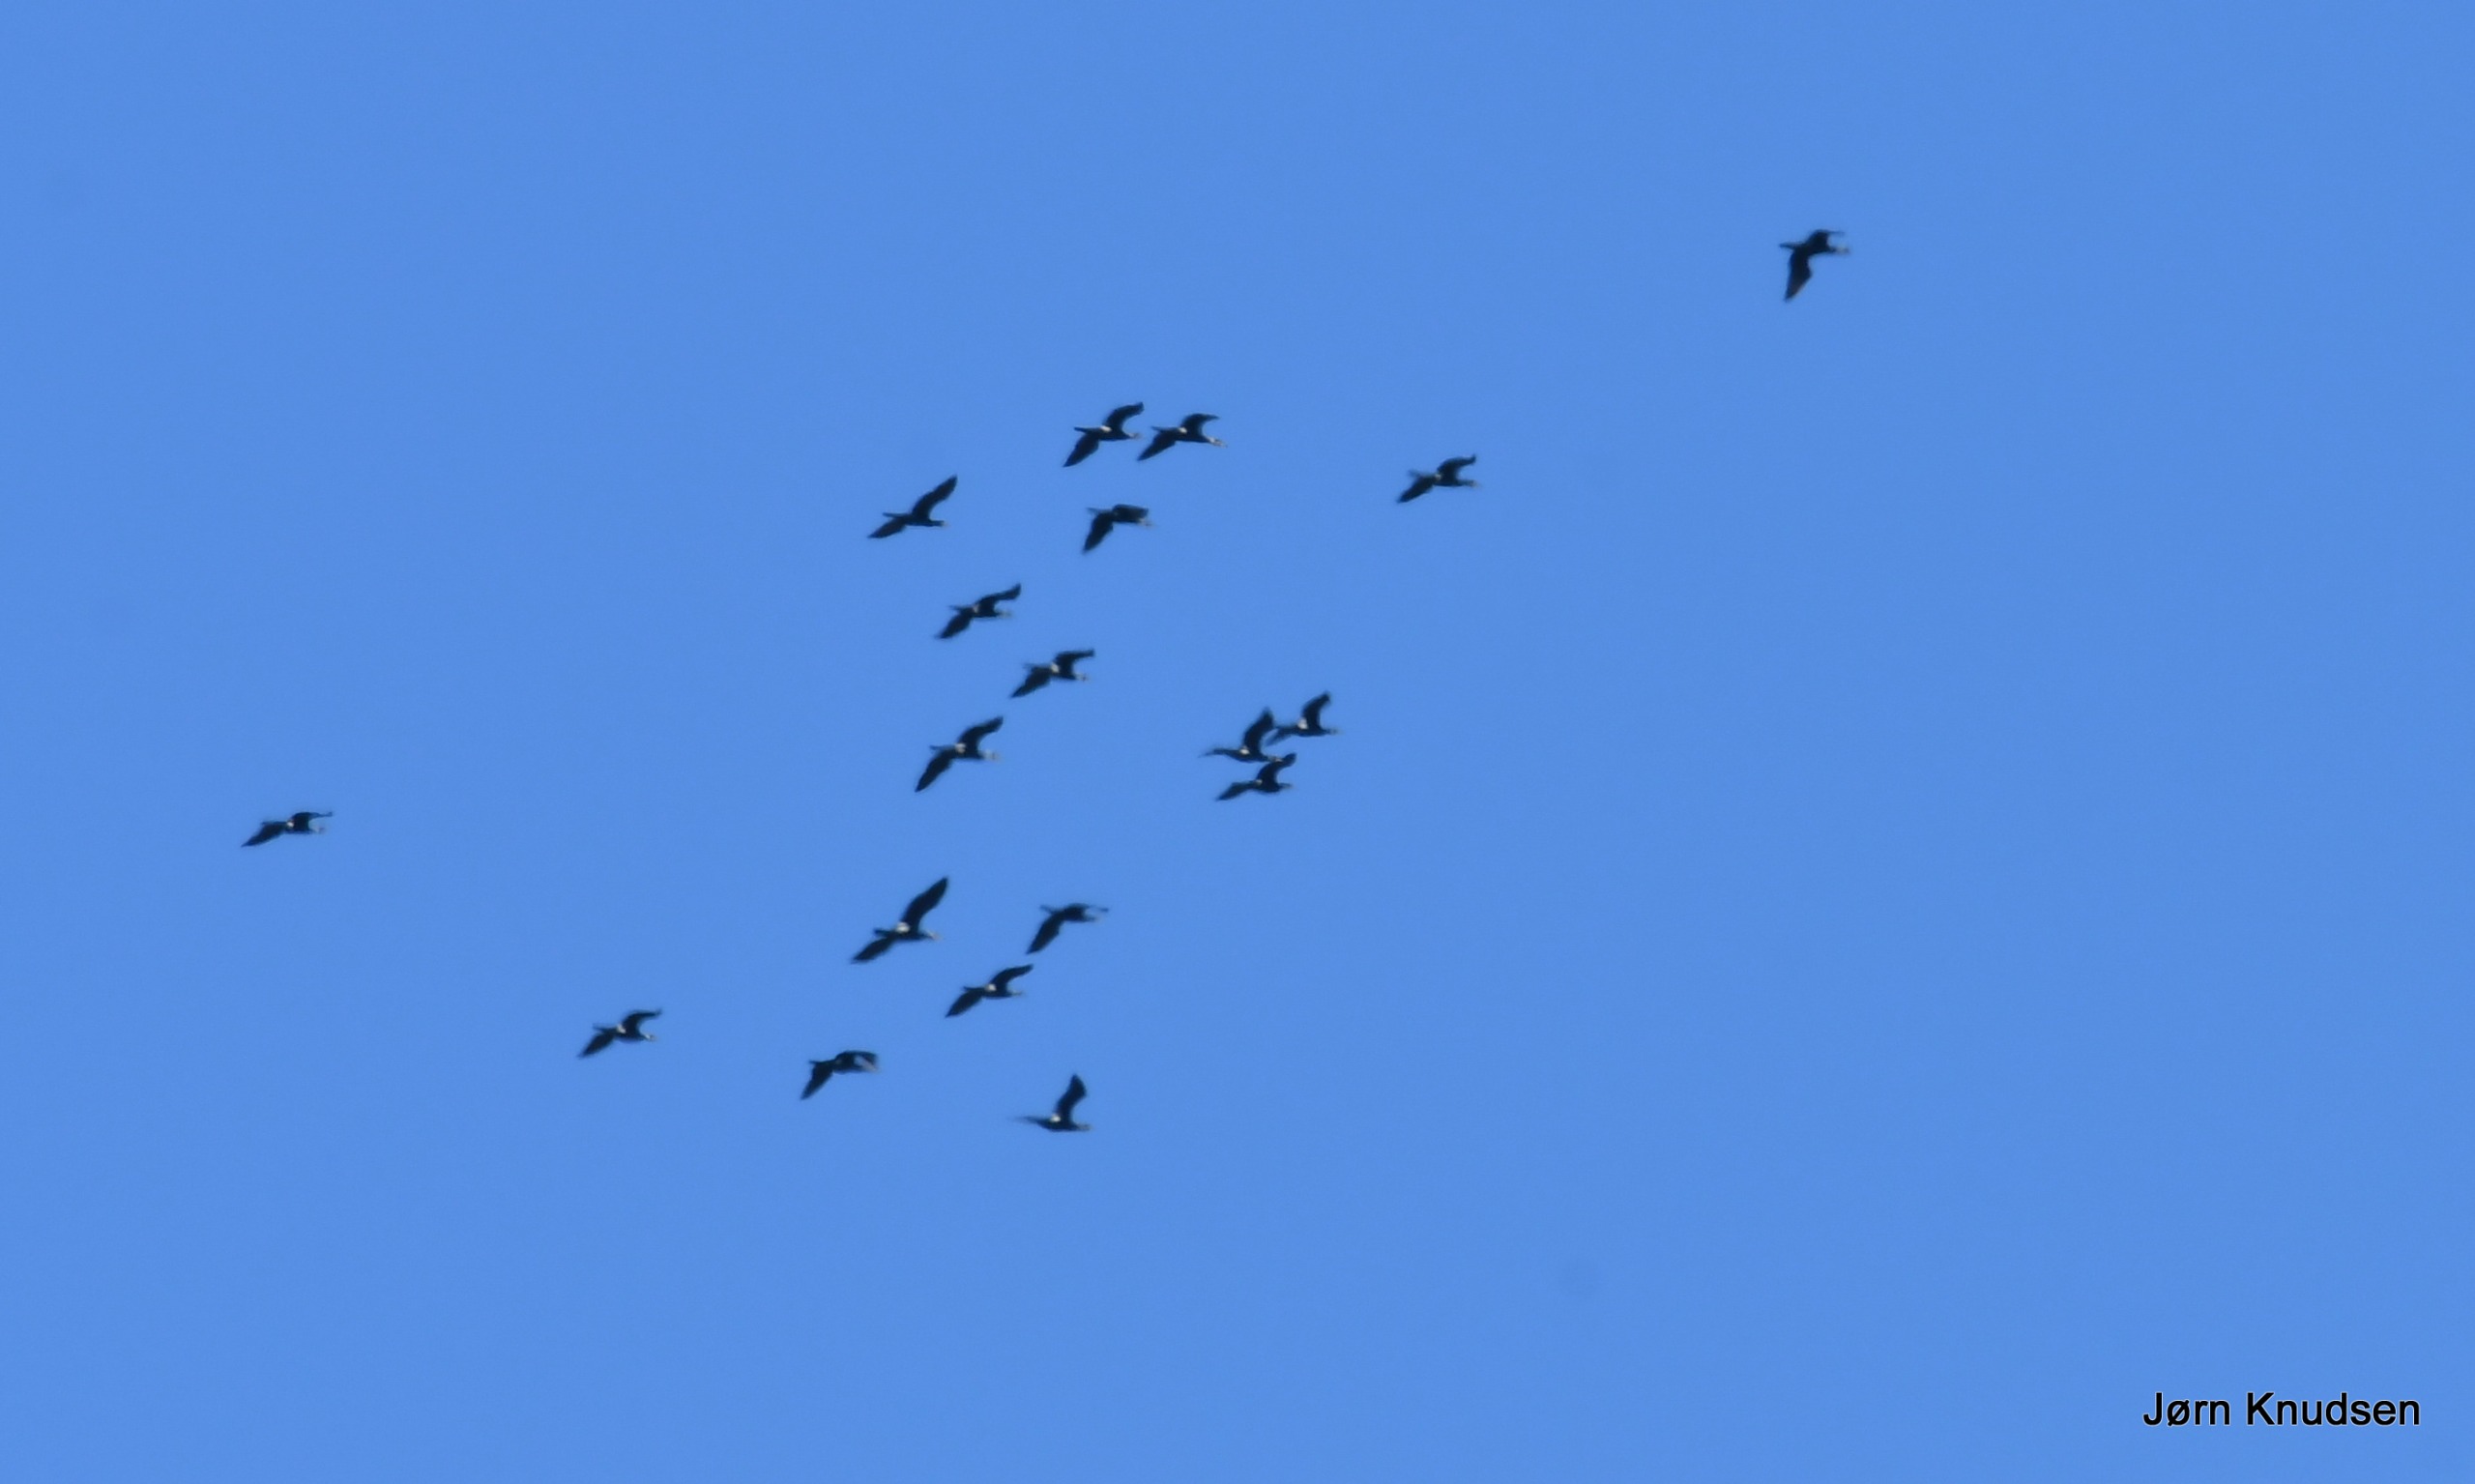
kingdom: Animalia
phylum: Chordata
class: Aves
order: Suliformes
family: Phalacrocoracidae
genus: Phalacrocorax
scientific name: Phalacrocorax carbo
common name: Skarv
